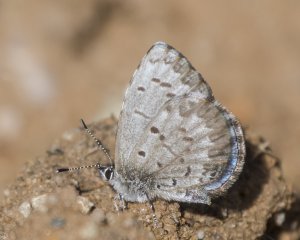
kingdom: Animalia
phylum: Arthropoda
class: Insecta
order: Lepidoptera
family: Lycaenidae
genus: Celastrina
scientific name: Celastrina lucia
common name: Northern Spring Azure
